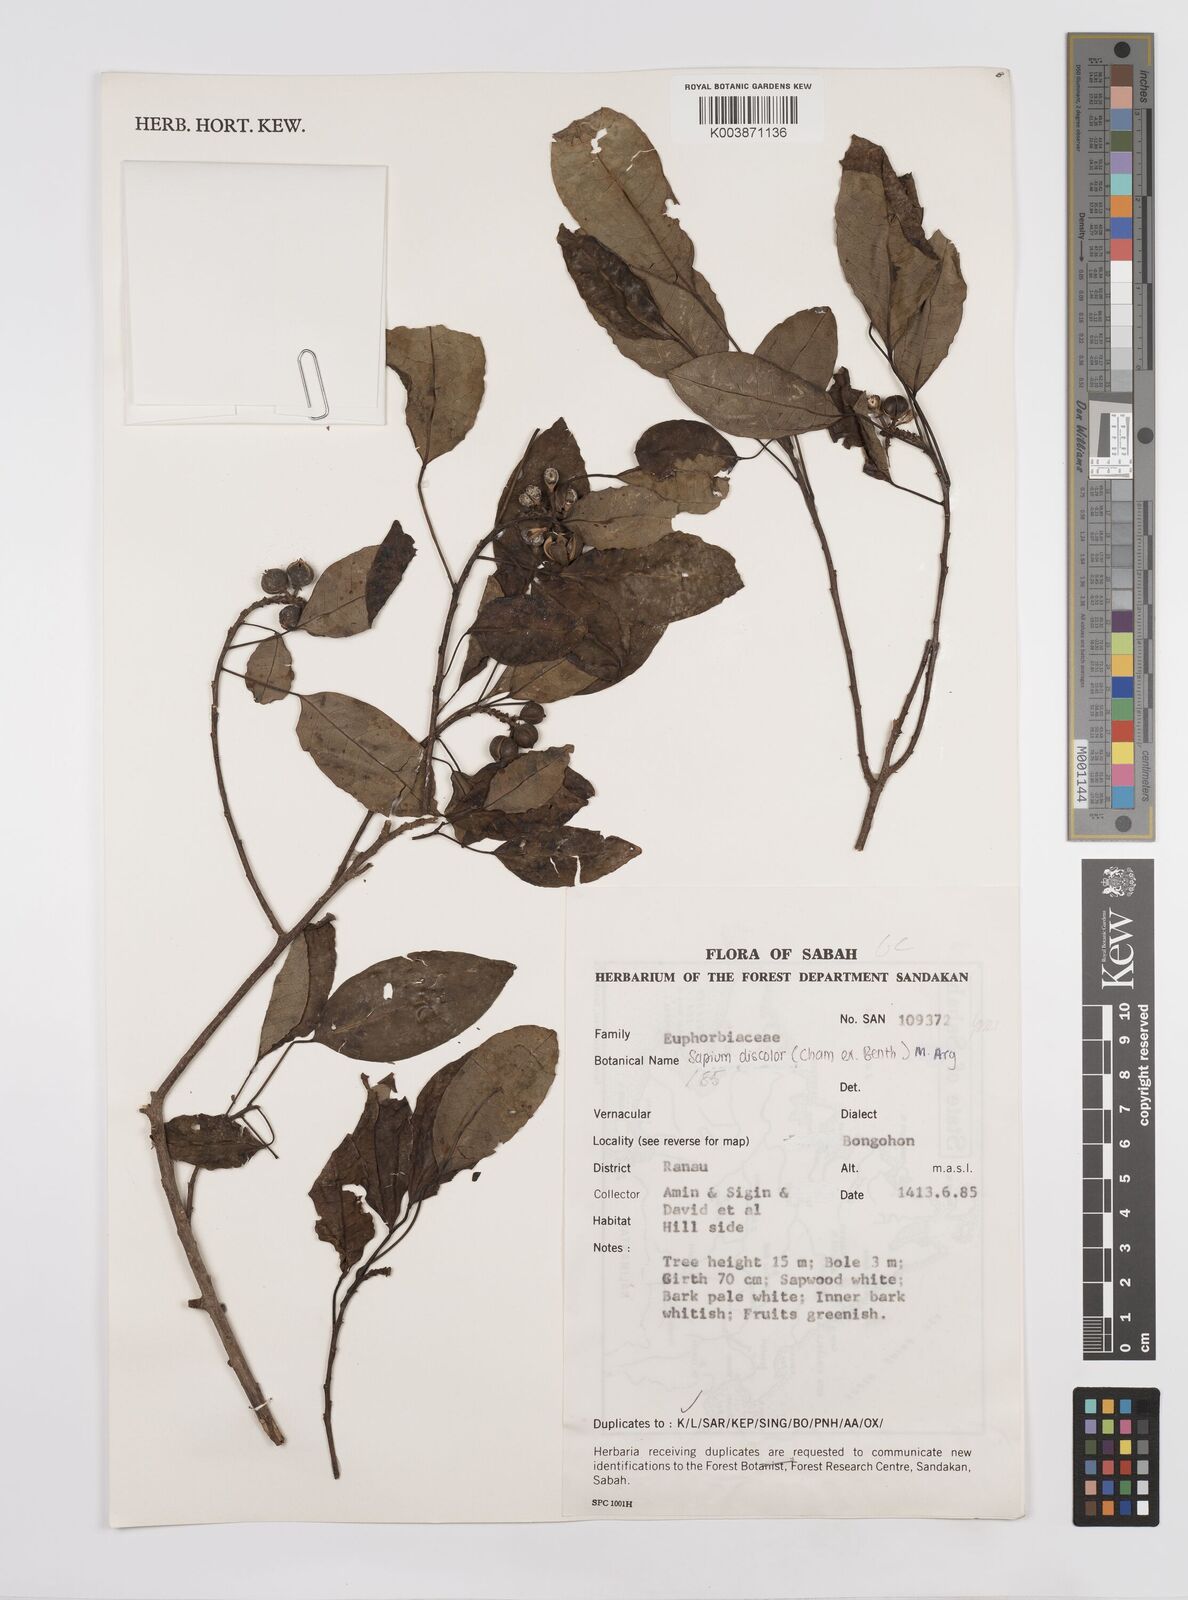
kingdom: Plantae
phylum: Tracheophyta
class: Magnoliopsida
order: Malpighiales
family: Euphorbiaceae
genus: Triadica
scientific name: Triadica cochinchinensis
